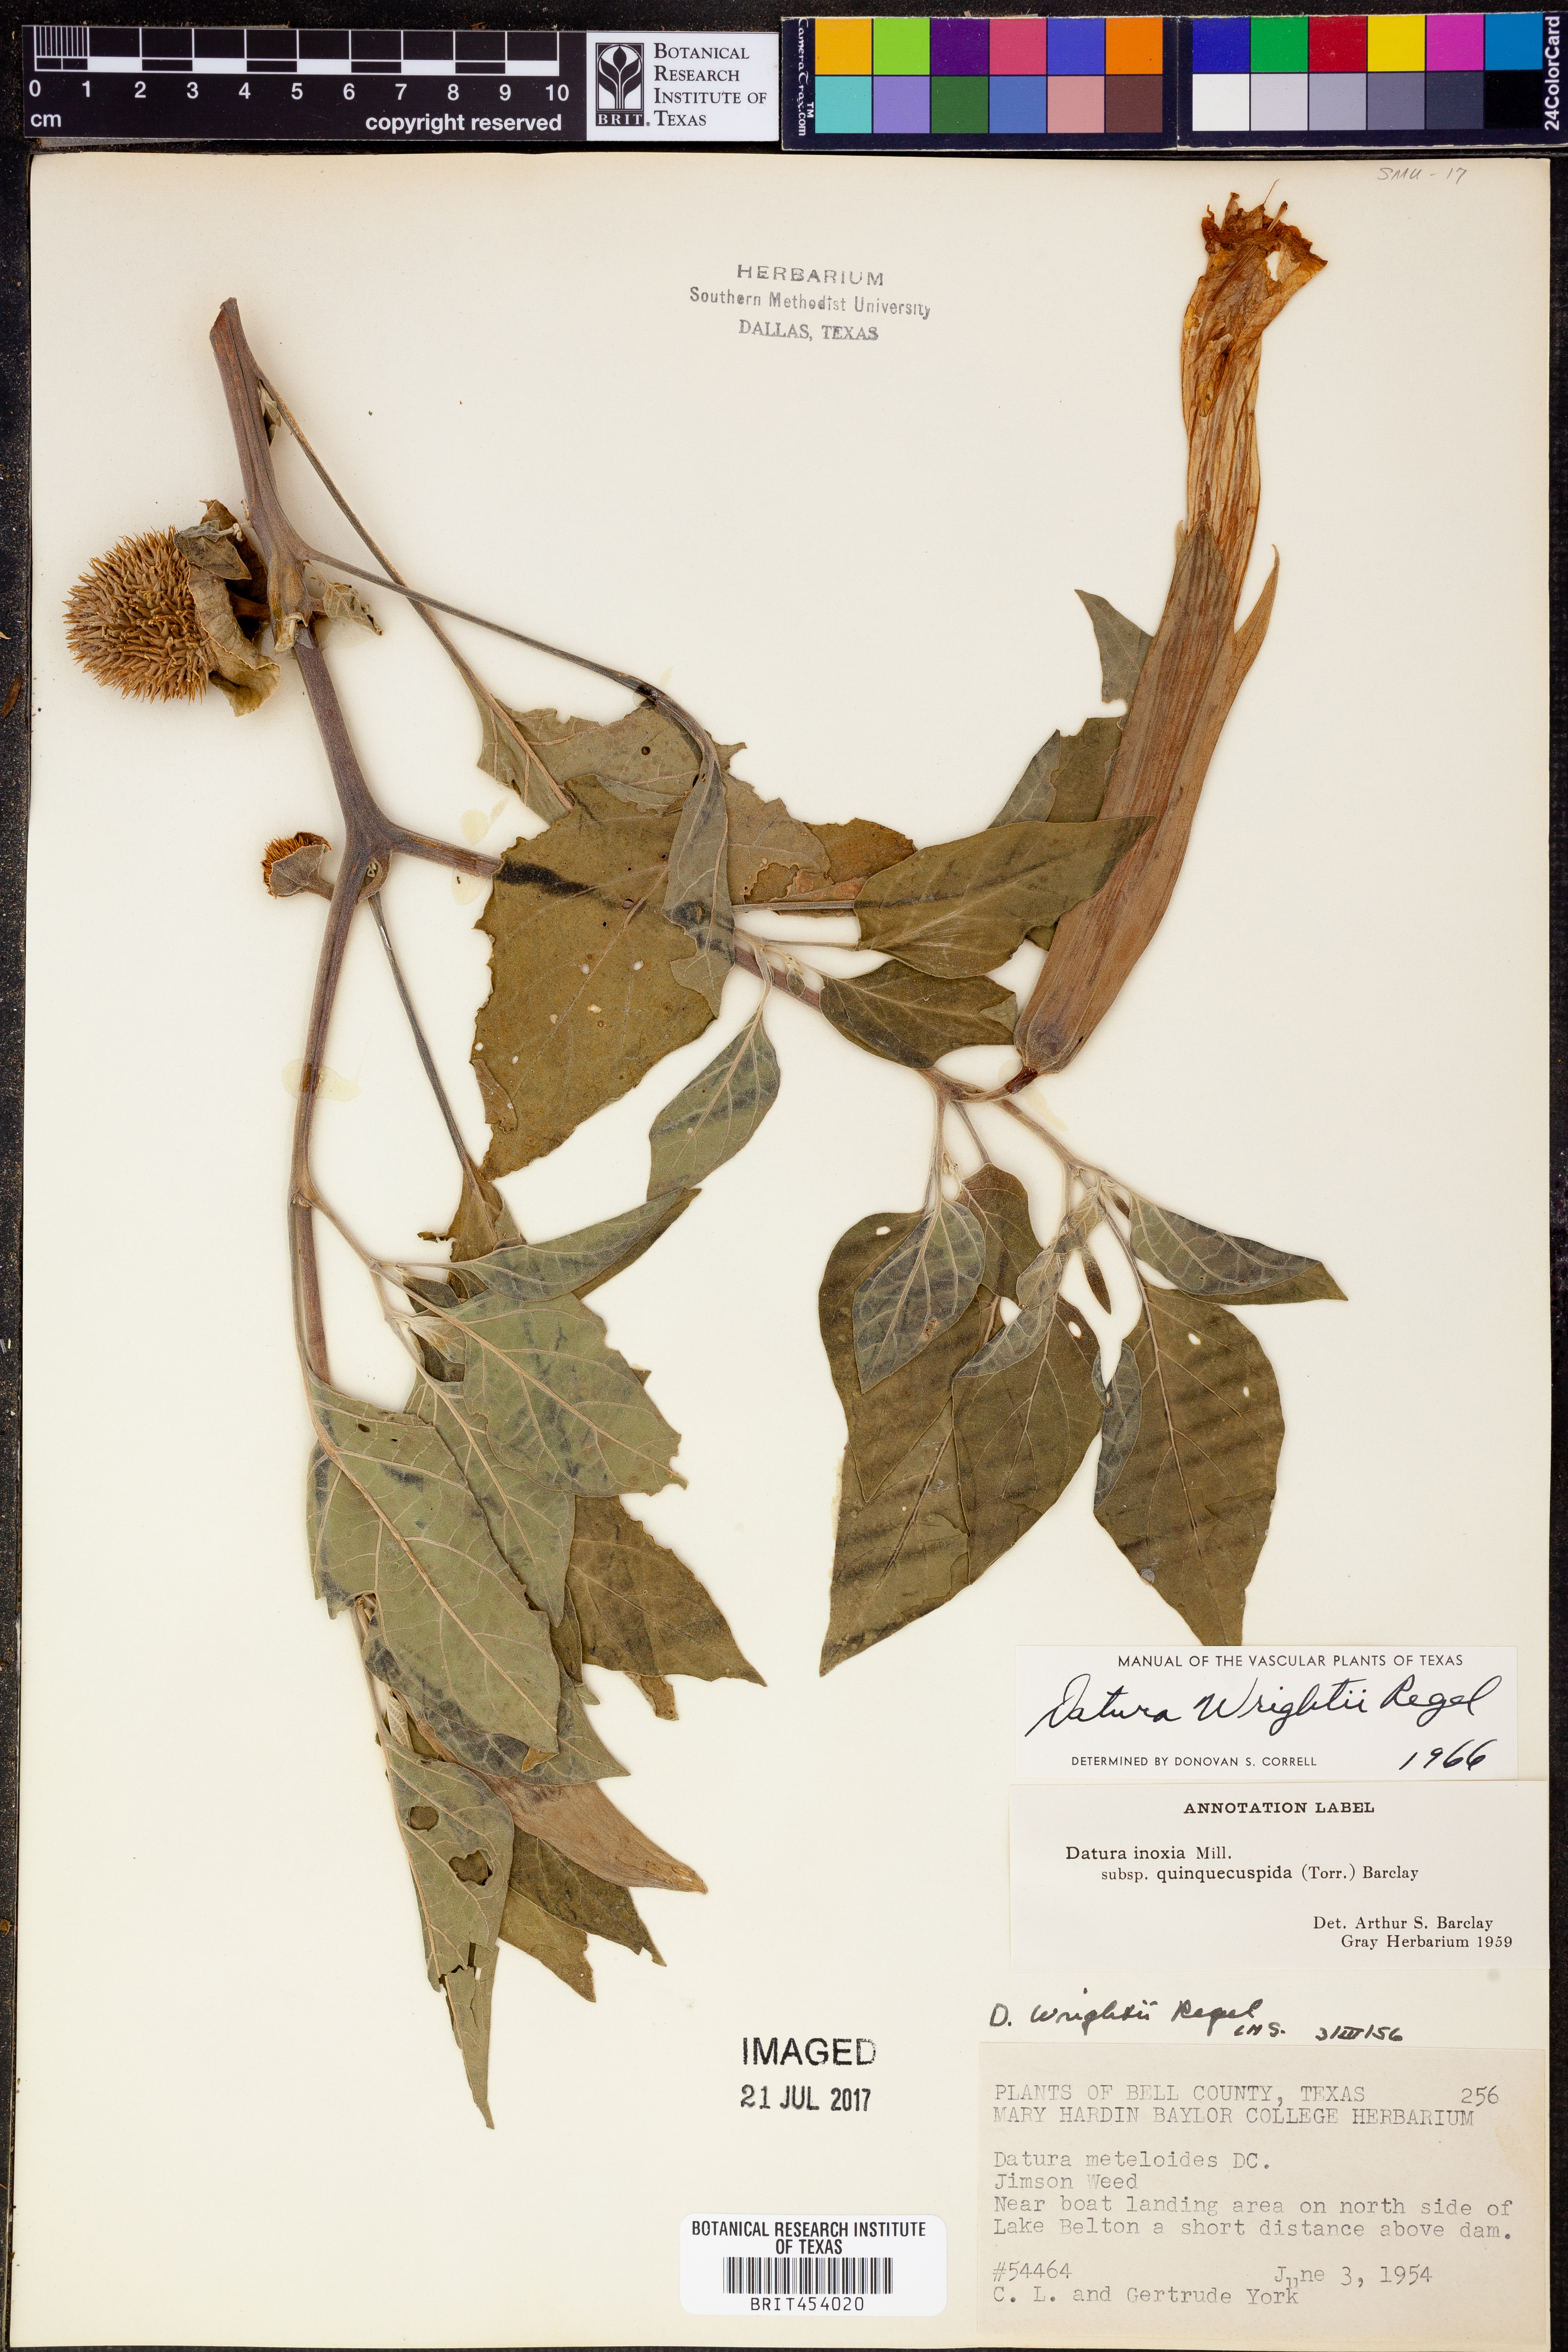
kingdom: Plantae
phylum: Tracheophyta
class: Magnoliopsida
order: Solanales
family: Solanaceae
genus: Datura
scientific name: Datura wrightii
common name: Sacred thorn-apple
